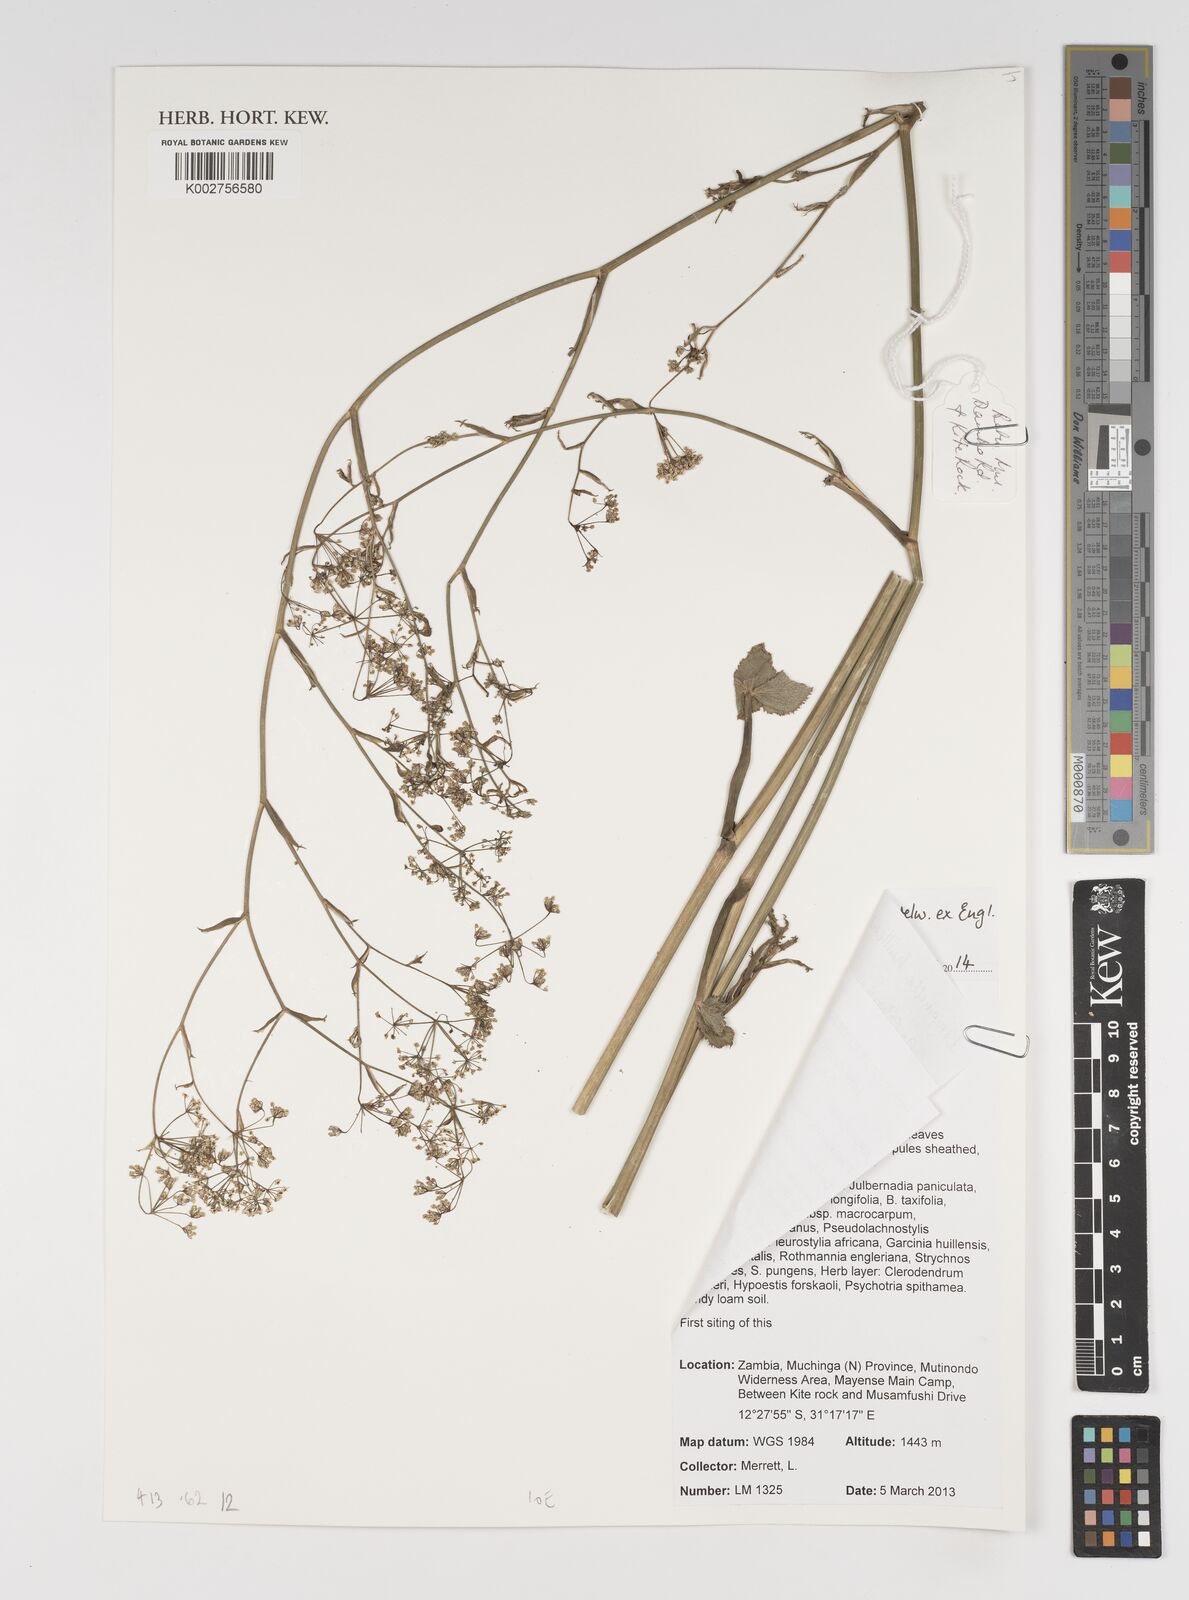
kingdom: Plantae
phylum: Tracheophyta
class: Magnoliopsida
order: Apiales
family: Apiaceae
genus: Pimpinella
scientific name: Pimpinella huillensis
